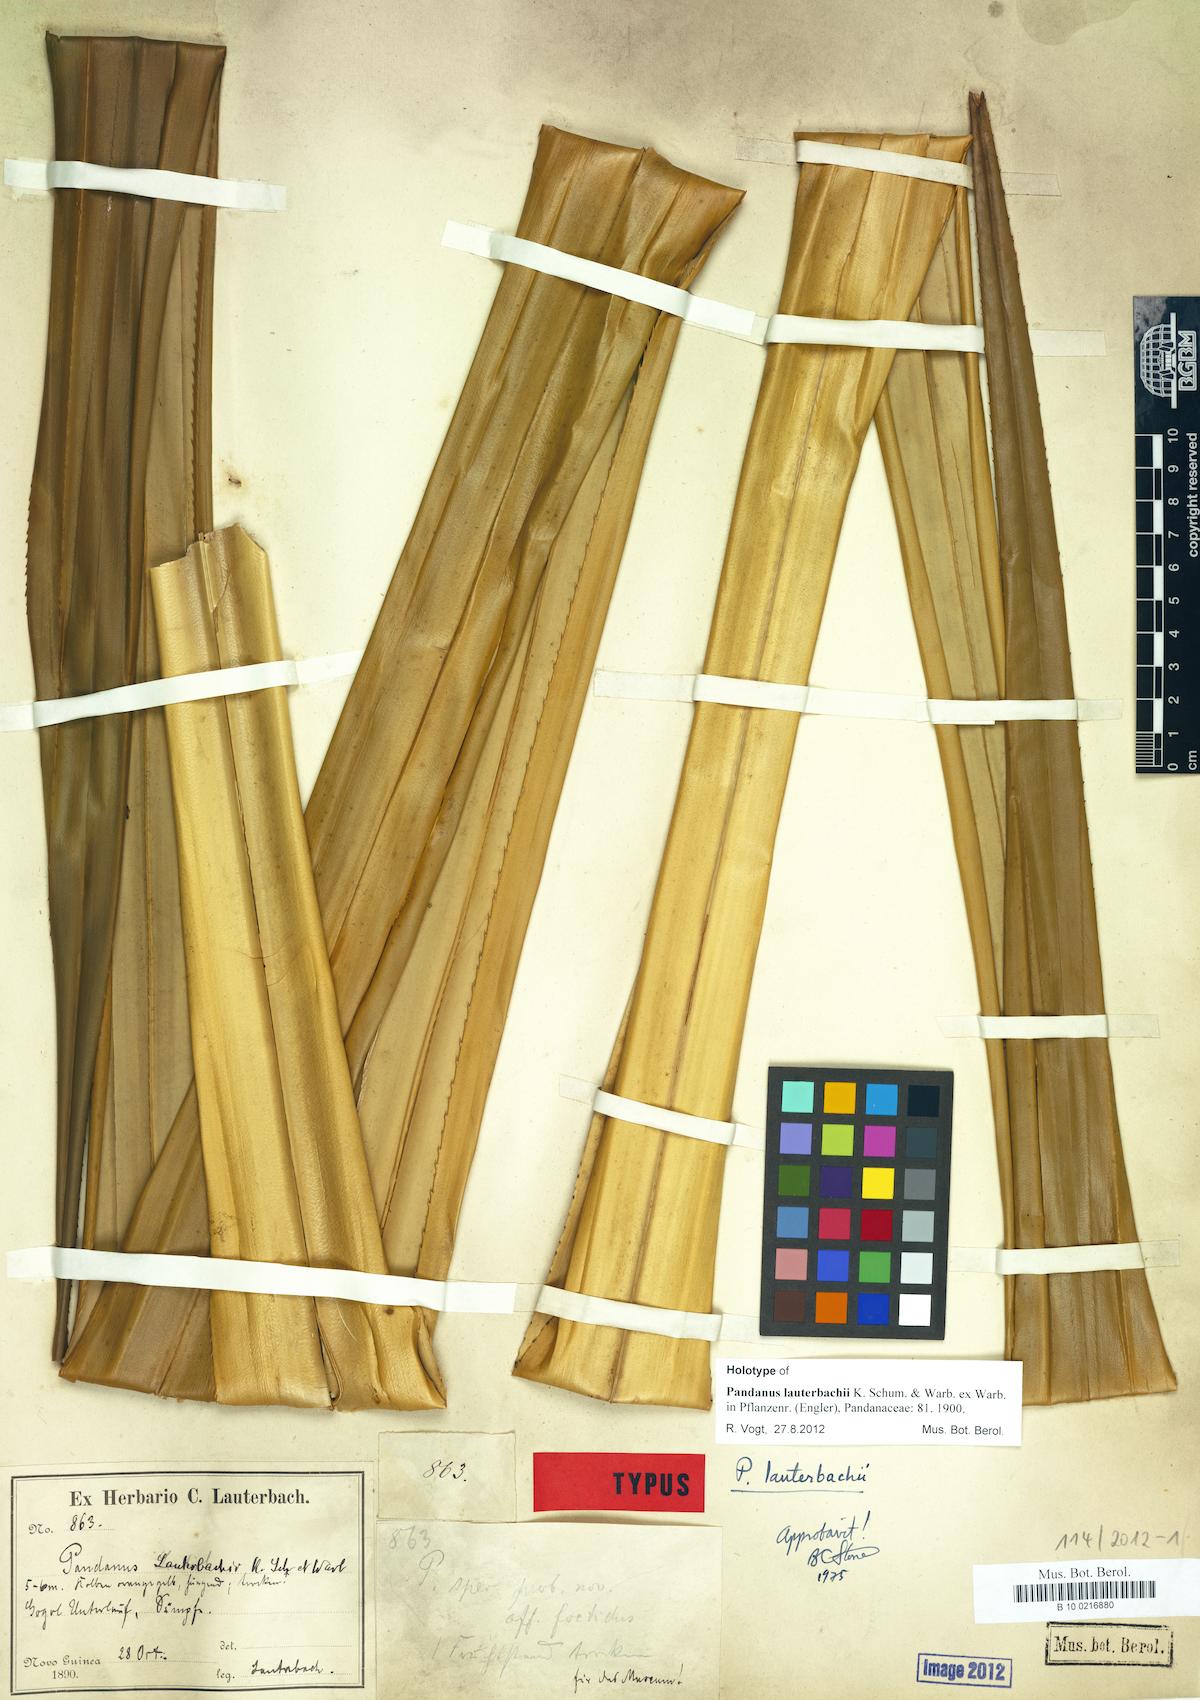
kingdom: Plantae
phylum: Tracheophyta
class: Liliopsida
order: Pandanales
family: Pandanaceae
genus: Benstonea
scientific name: Benstonea lauterbachii
